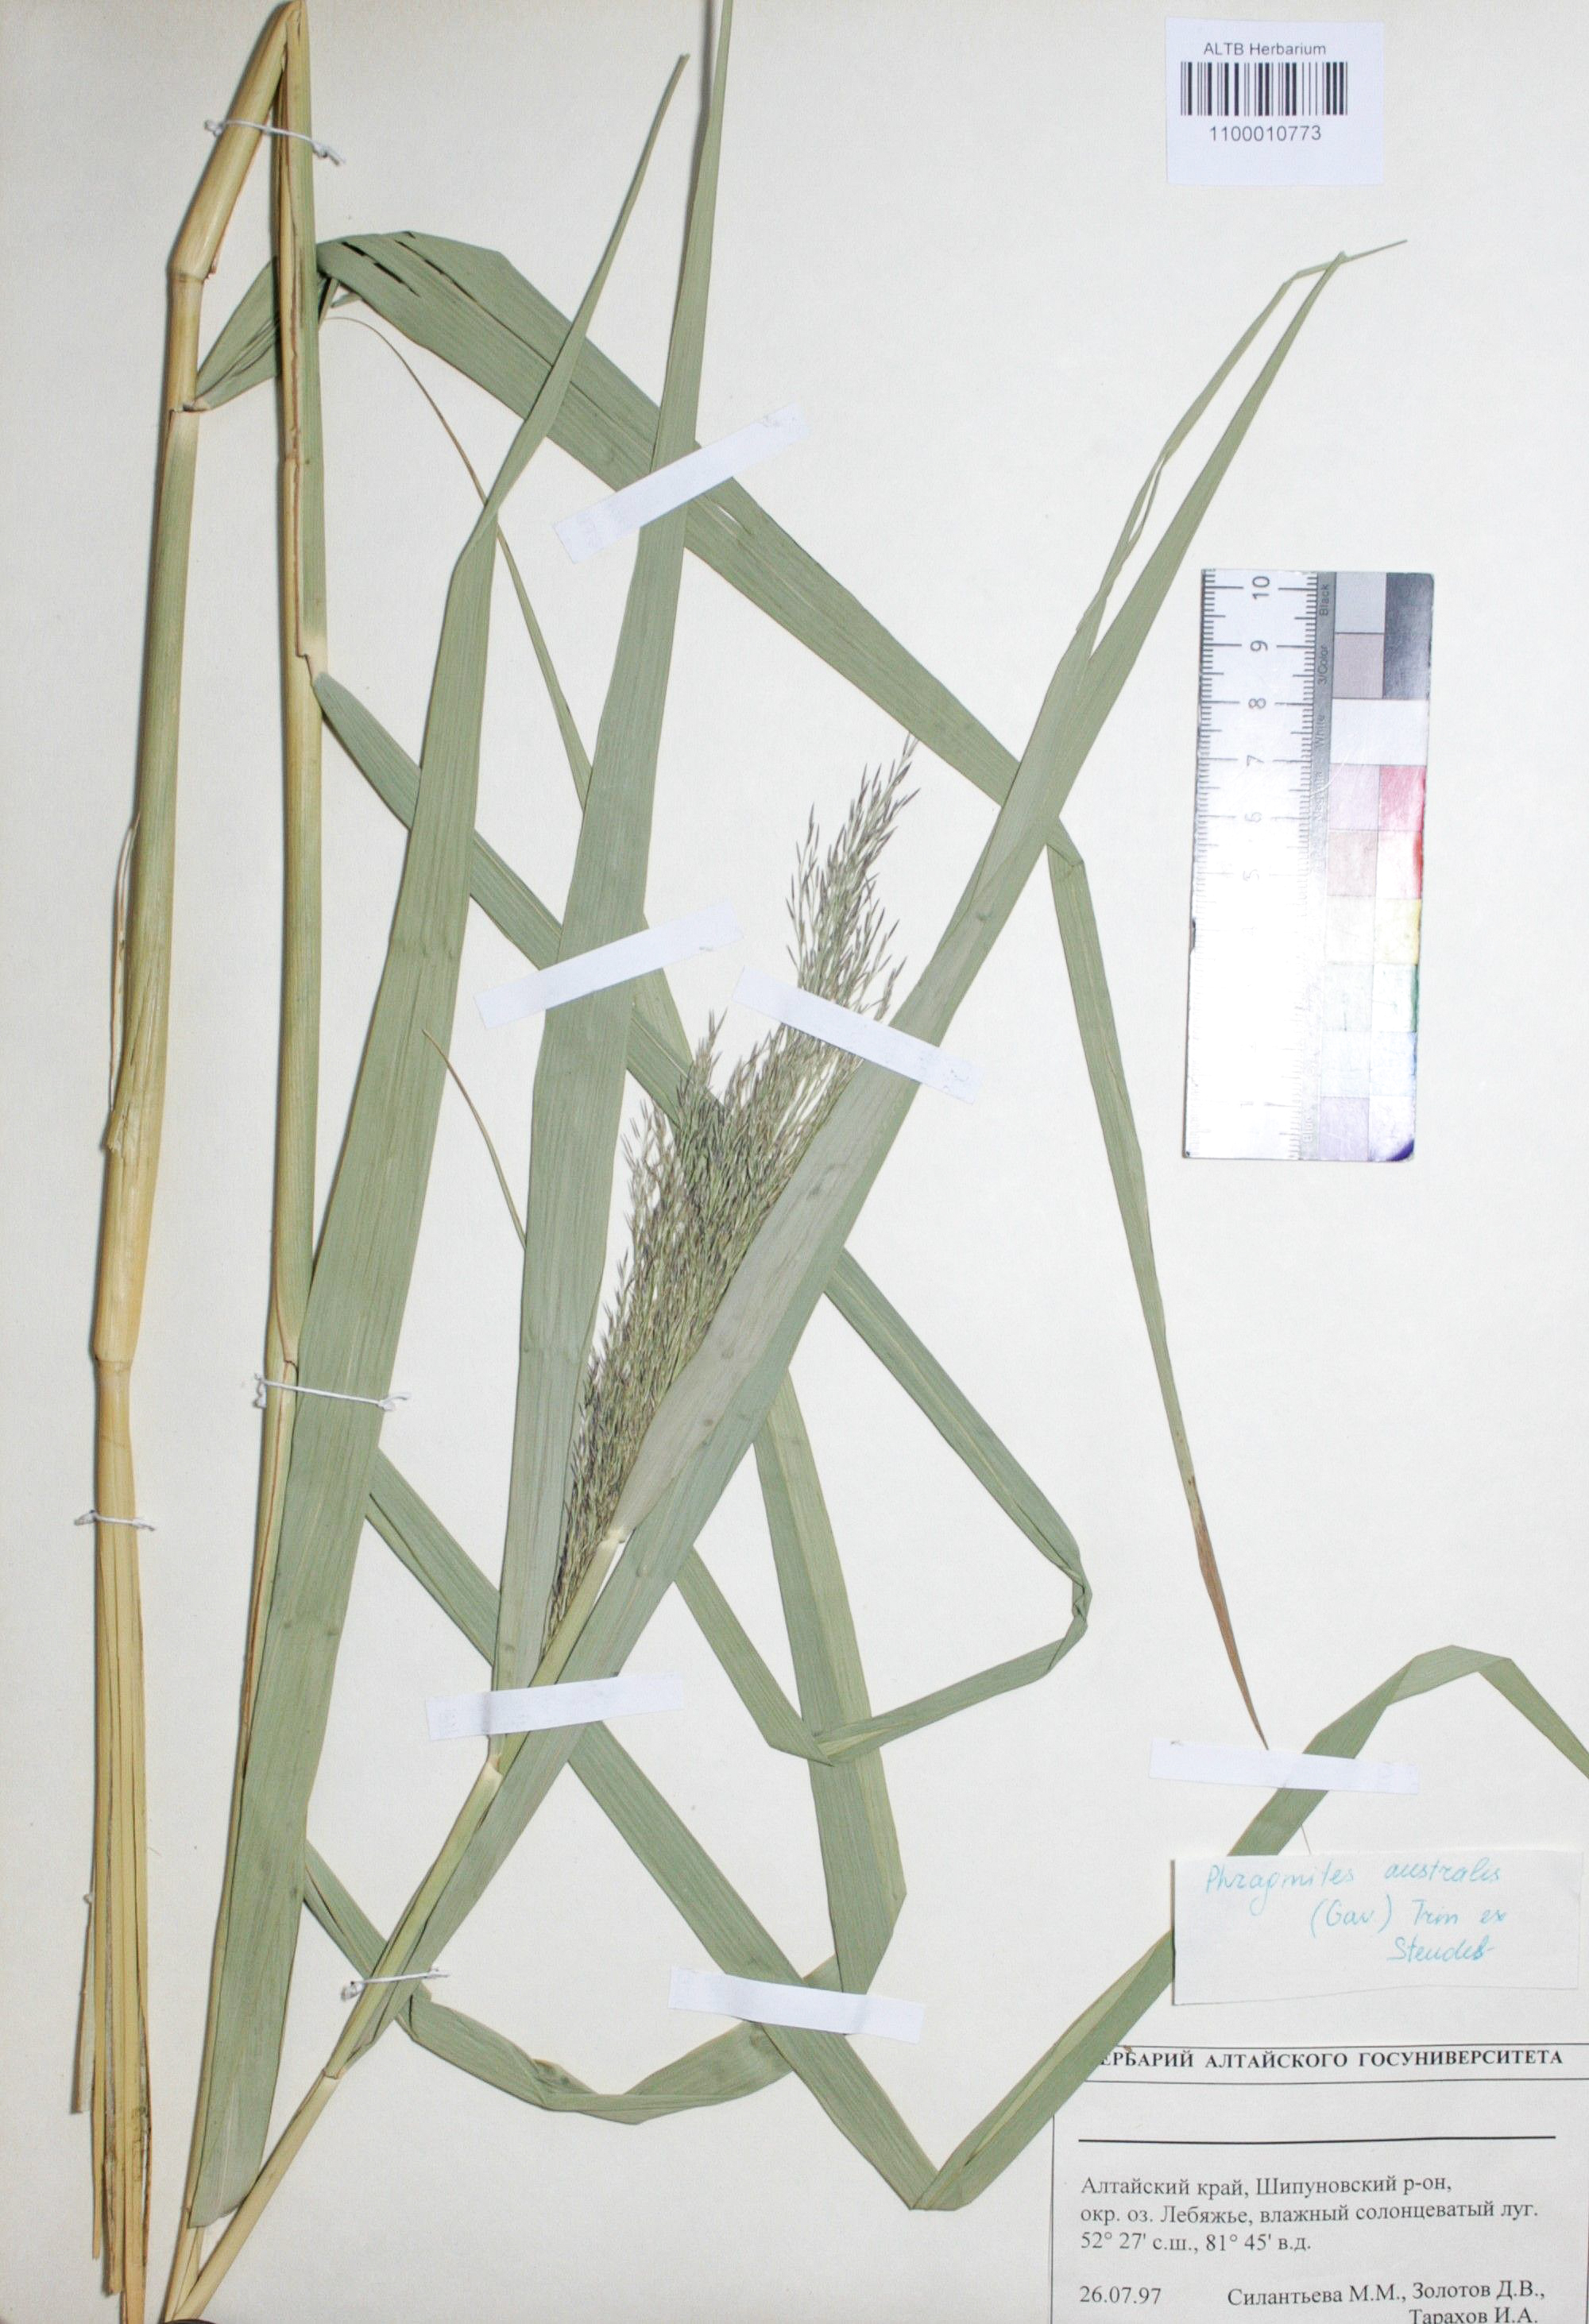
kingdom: Plantae
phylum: Tracheophyta
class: Liliopsida
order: Poales
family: Poaceae
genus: Phragmites
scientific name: Phragmites australis
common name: Common reed
